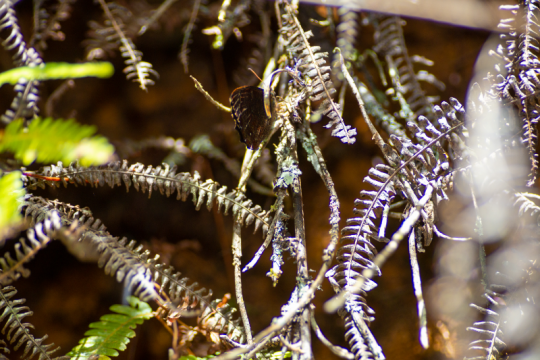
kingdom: Animalia
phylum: Arthropoda
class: Insecta
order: Lepidoptera
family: Nymphalidae
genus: Pedaliodes
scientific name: Pedaliodes pisonia
